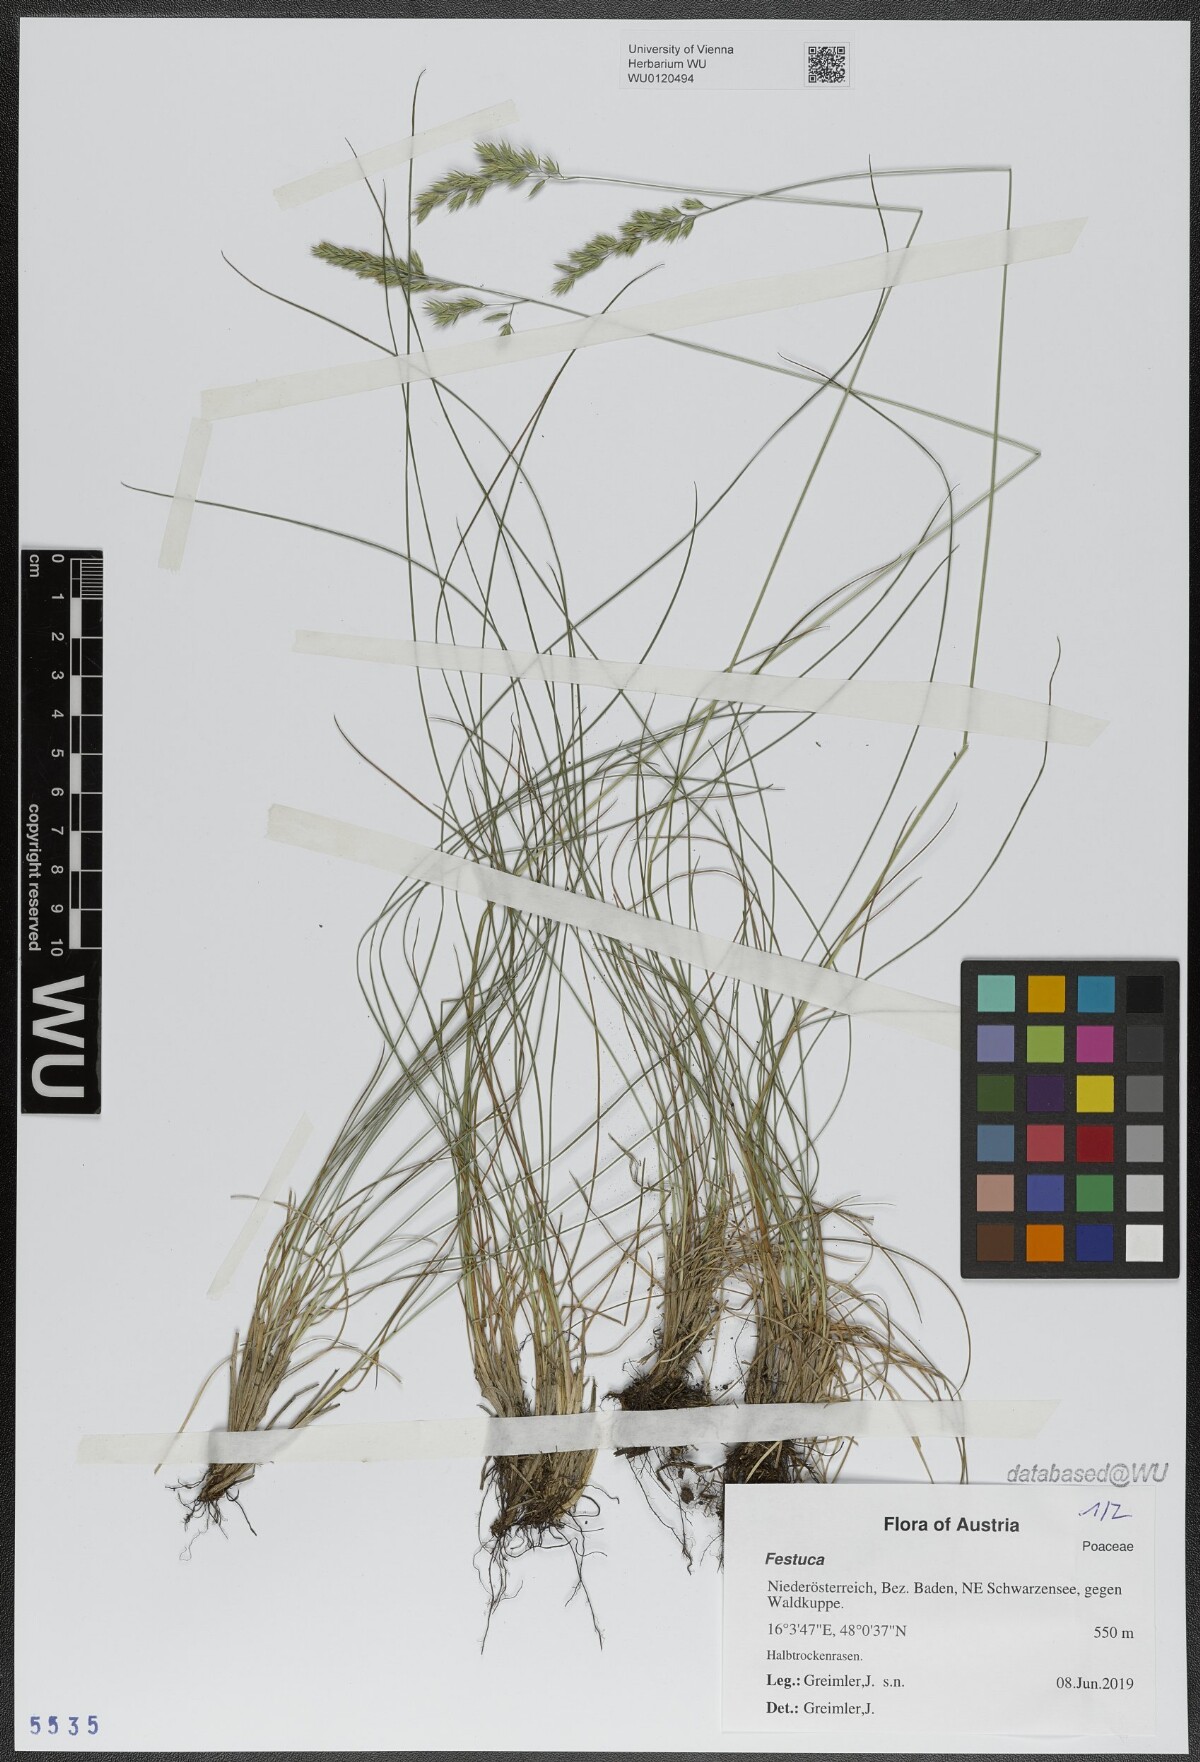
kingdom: Plantae
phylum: Tracheophyta
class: Liliopsida
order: Poales
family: Poaceae
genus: Festuca
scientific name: Festuca
